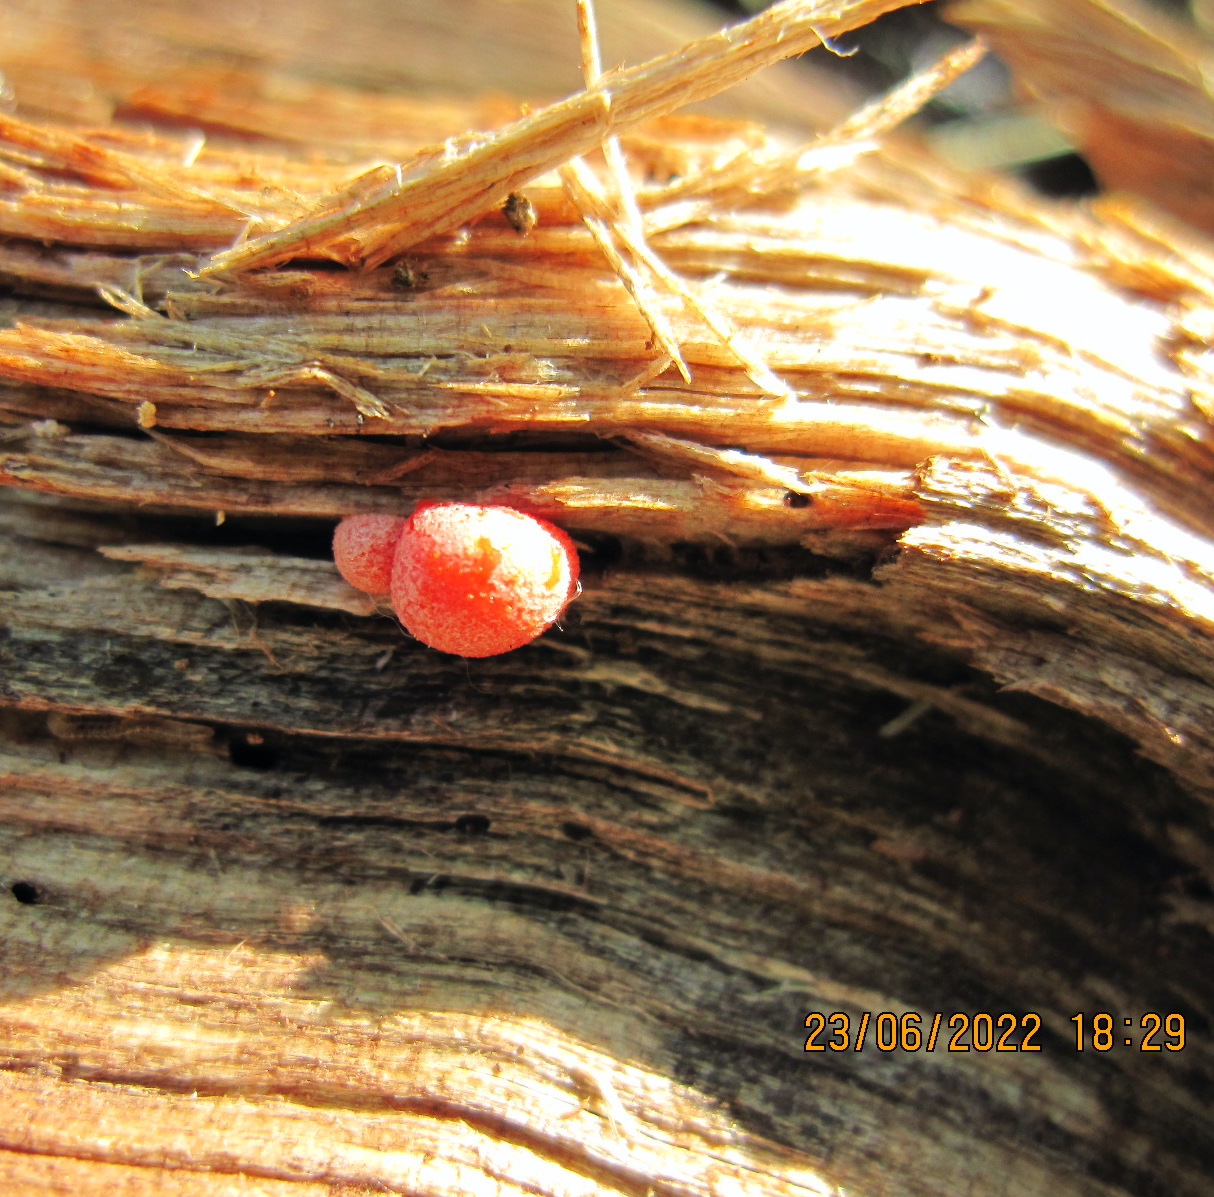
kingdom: Protozoa
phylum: Mycetozoa
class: Myxomycetes
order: Cribrariales
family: Tubiferaceae
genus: Lycogala
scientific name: Lycogala epidendrum
